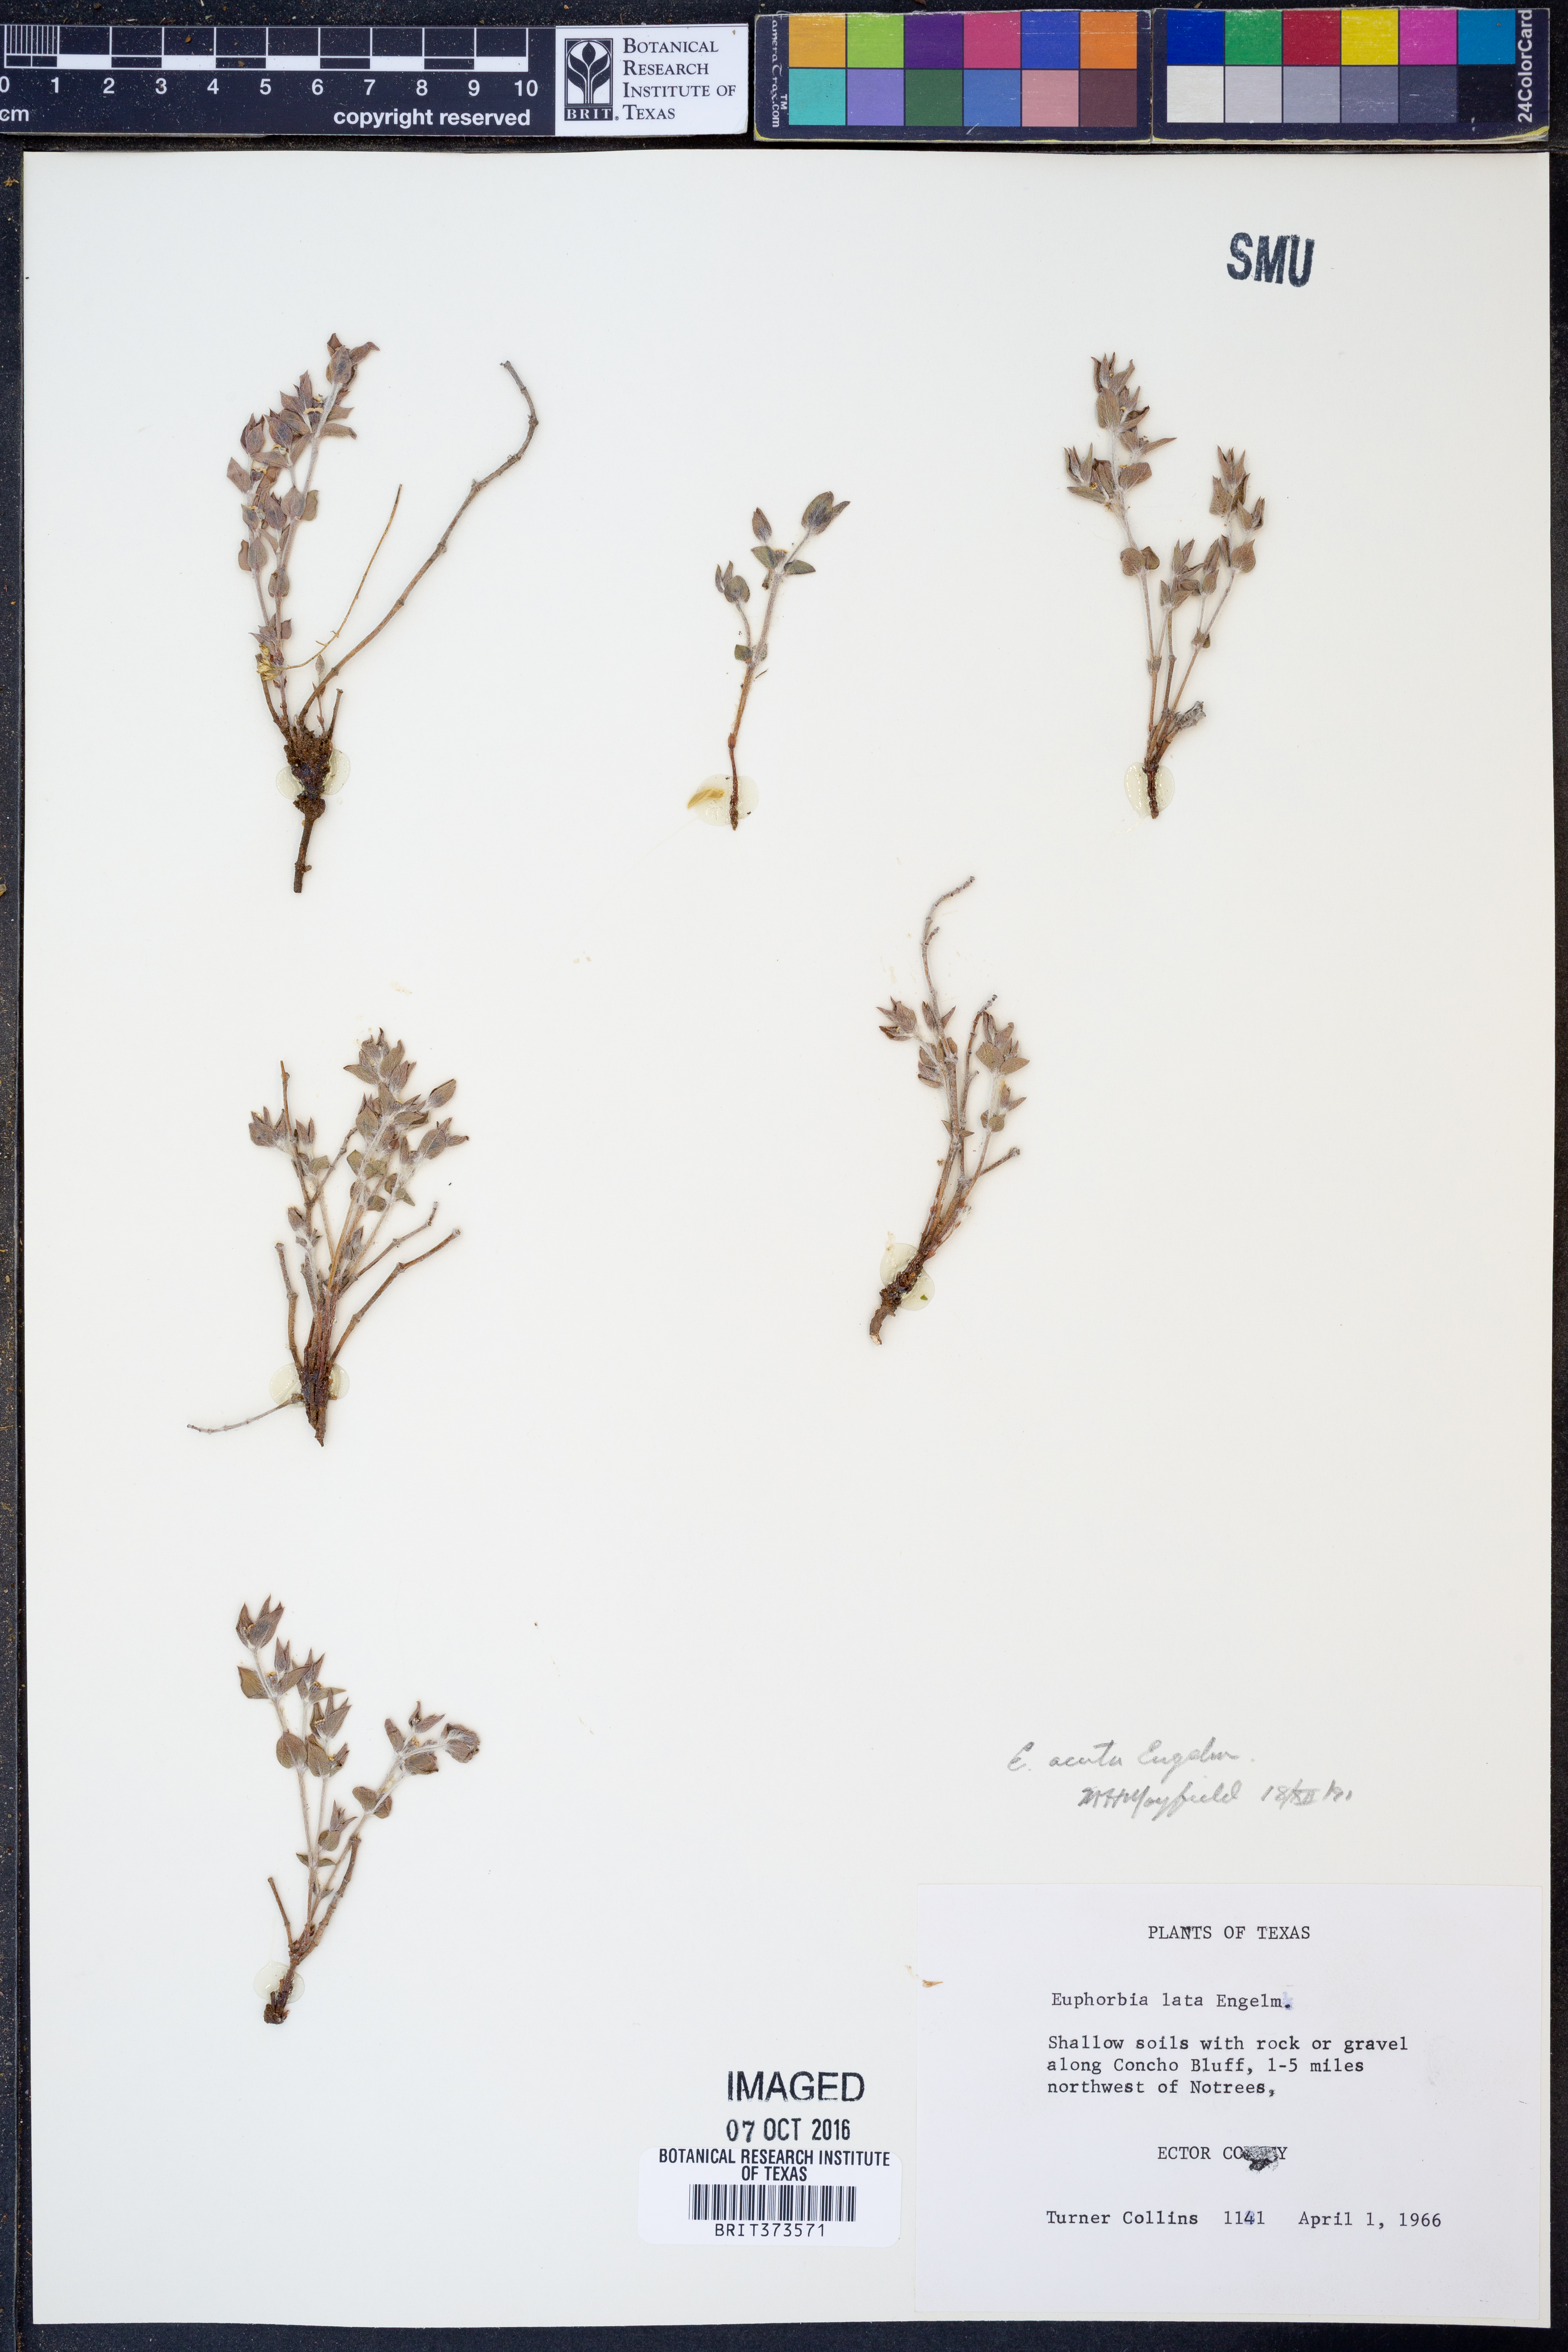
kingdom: Plantae
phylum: Tracheophyta
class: Magnoliopsida
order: Malpighiales
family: Euphorbiaceae
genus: Euphorbia
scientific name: Euphorbia acuta
